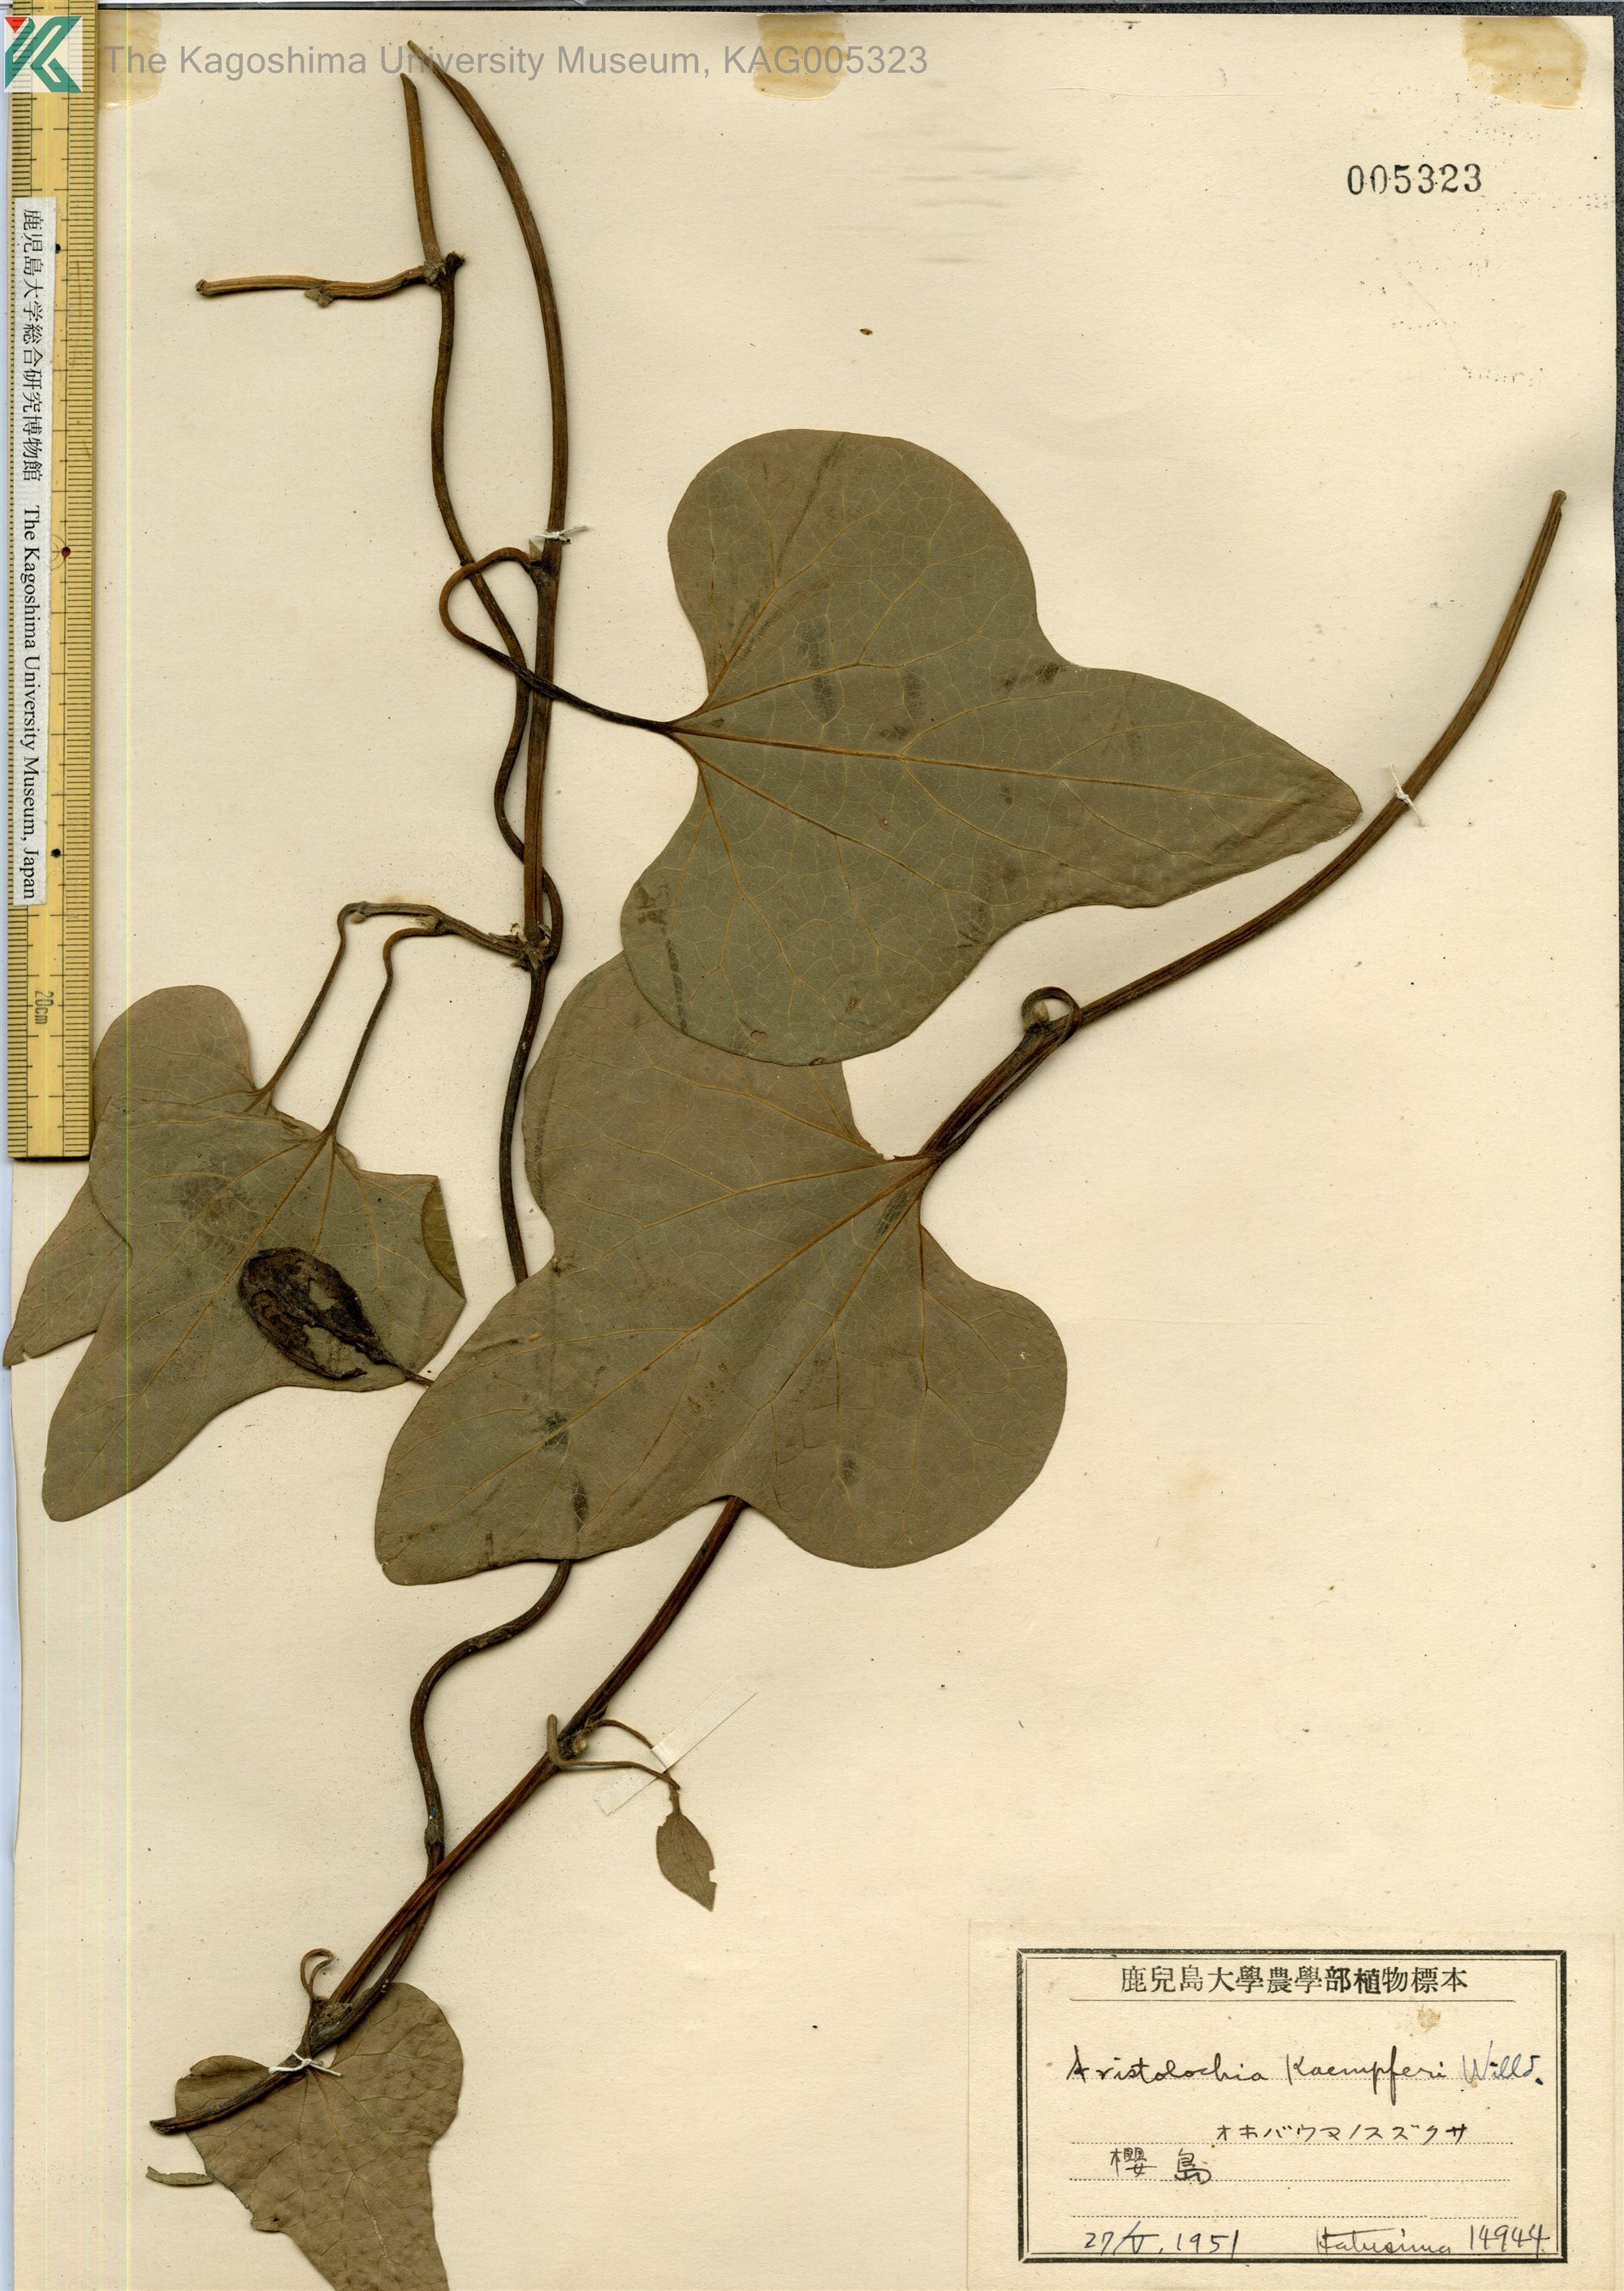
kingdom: Plantae
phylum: Tracheophyta
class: Magnoliopsida
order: Piperales
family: Aristolochiaceae
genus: Isotrema
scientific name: Isotrema kaempferi
